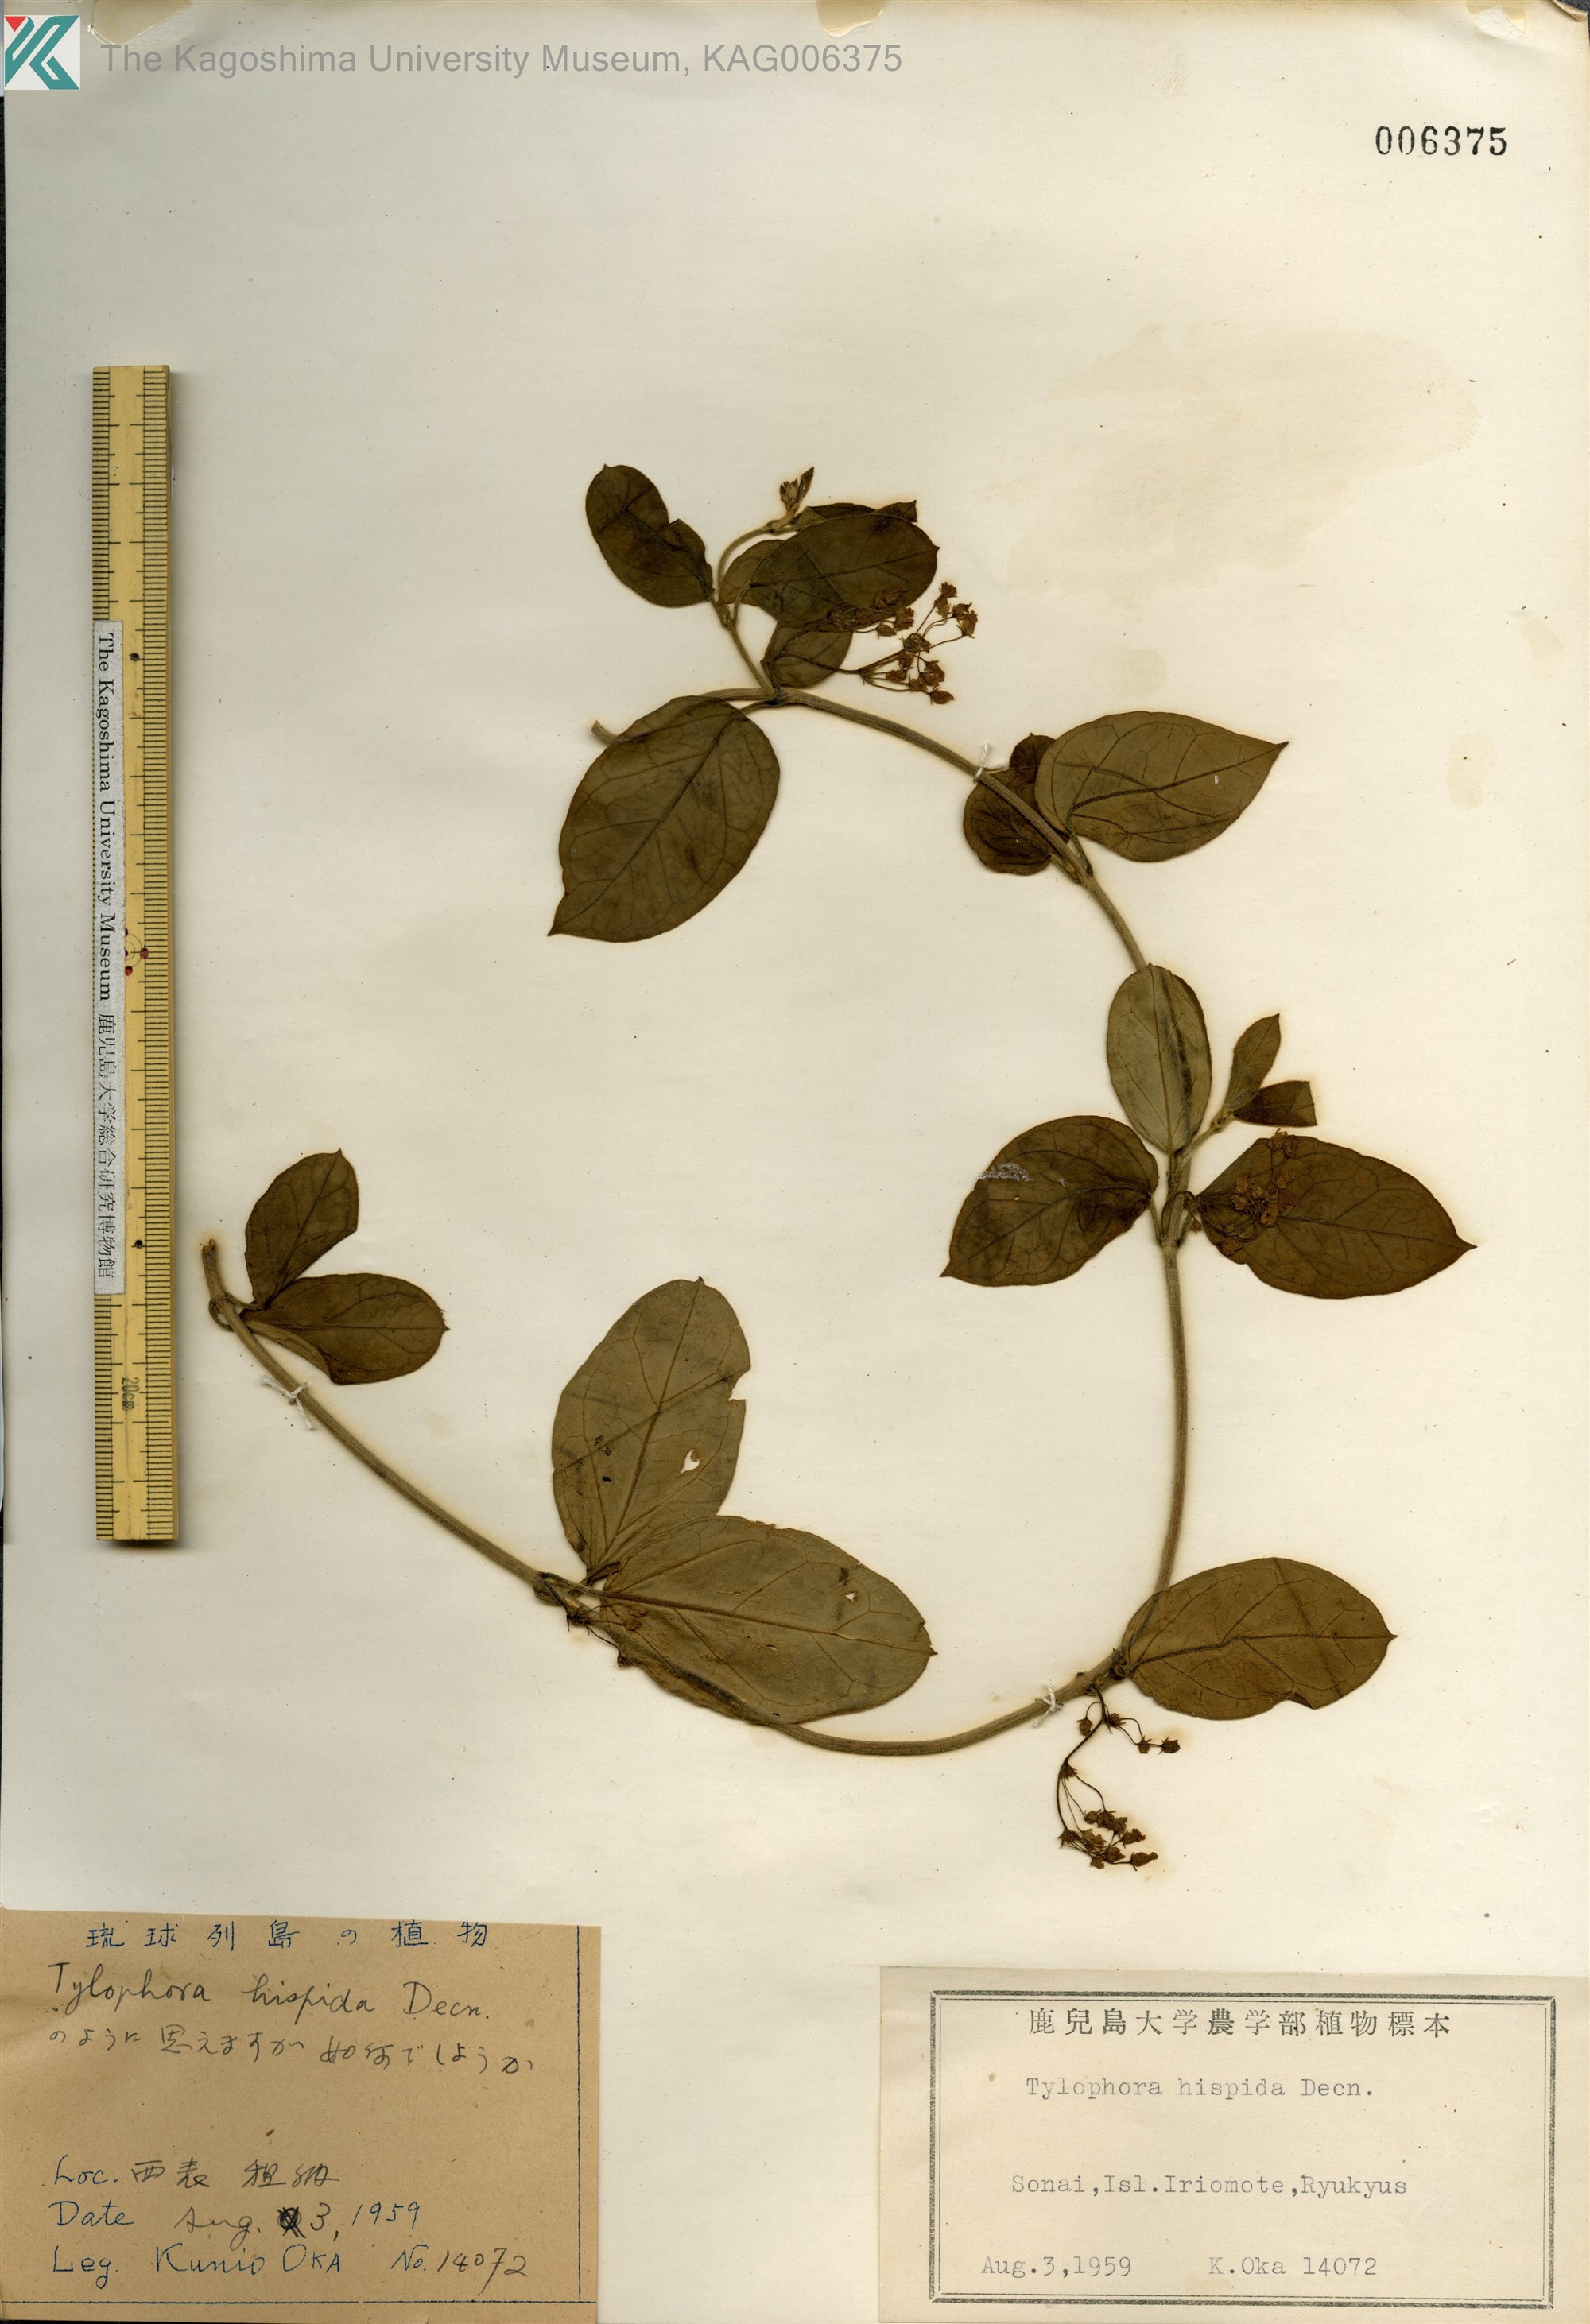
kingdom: Plantae
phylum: Tracheophyta
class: Magnoliopsida
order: Gentianales
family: Apocynaceae
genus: Vincetoxicum
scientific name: Vincetoxicum hirsutum
